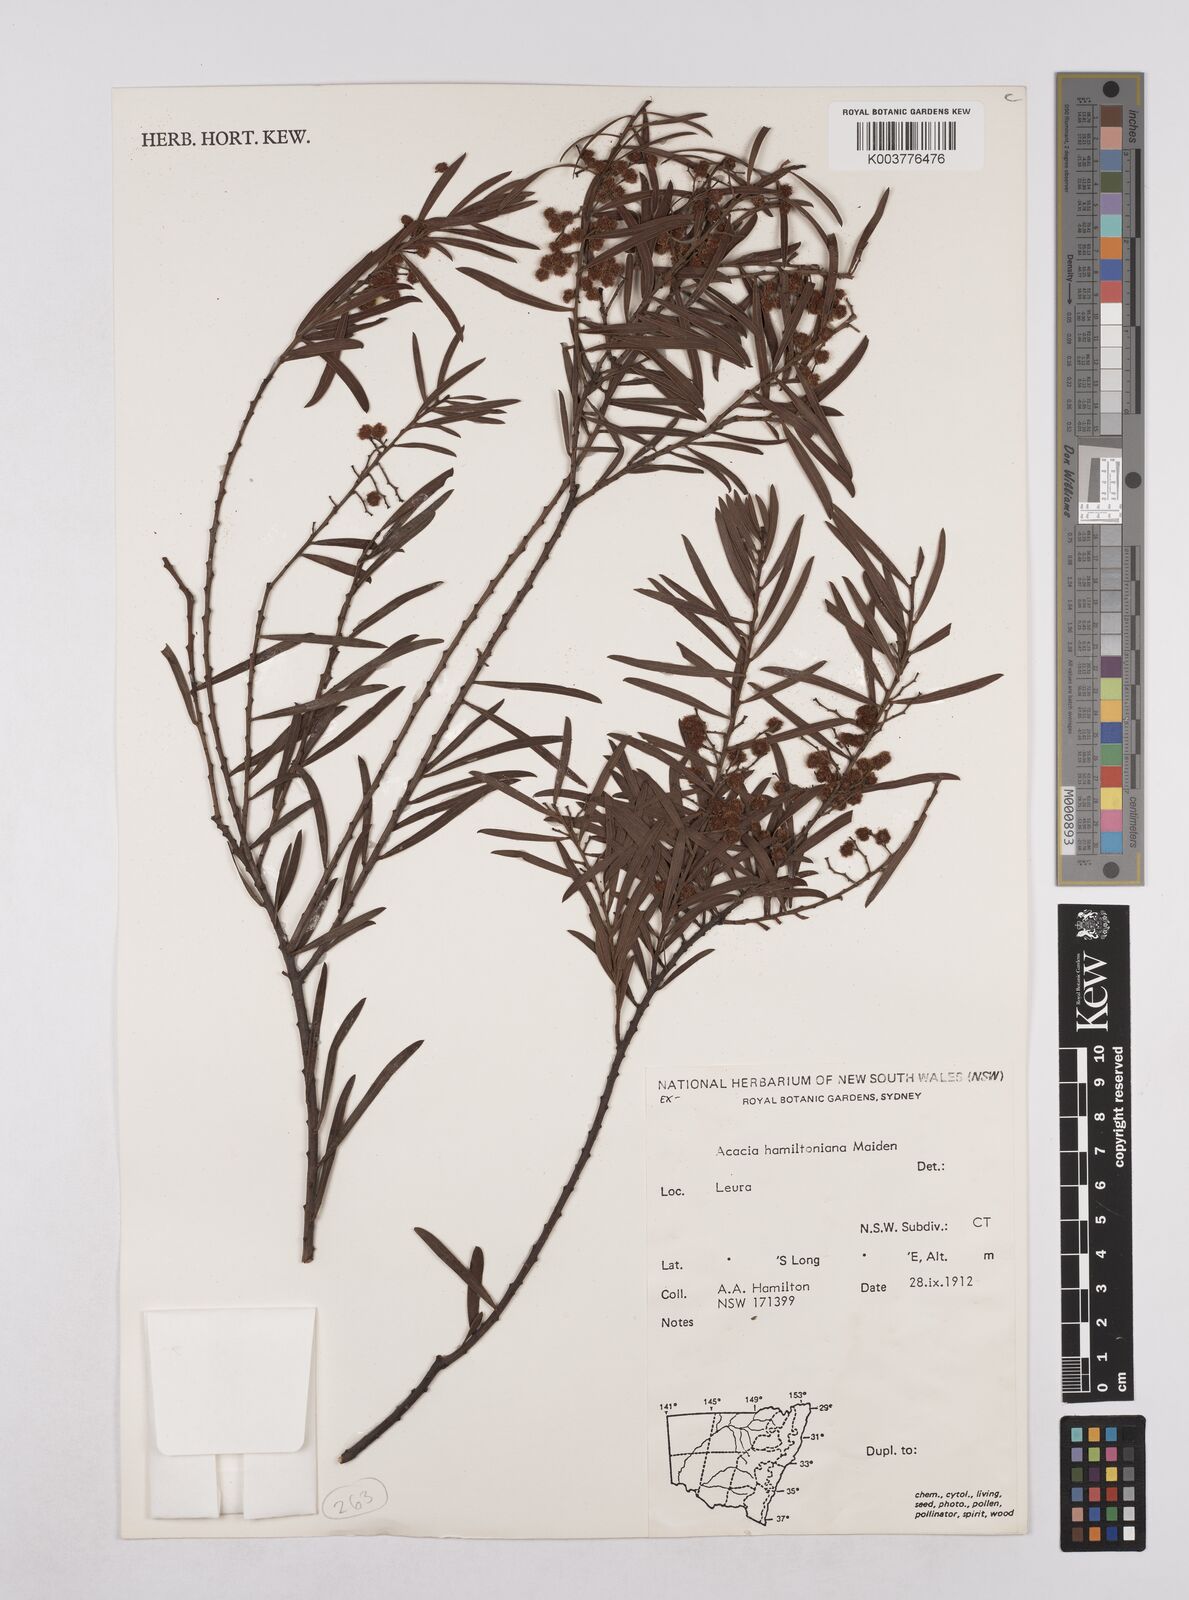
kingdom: Plantae
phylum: Tracheophyta
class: Magnoliopsida
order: Fabales
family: Fabaceae
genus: Acacia
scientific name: Acacia hamiltoniana
